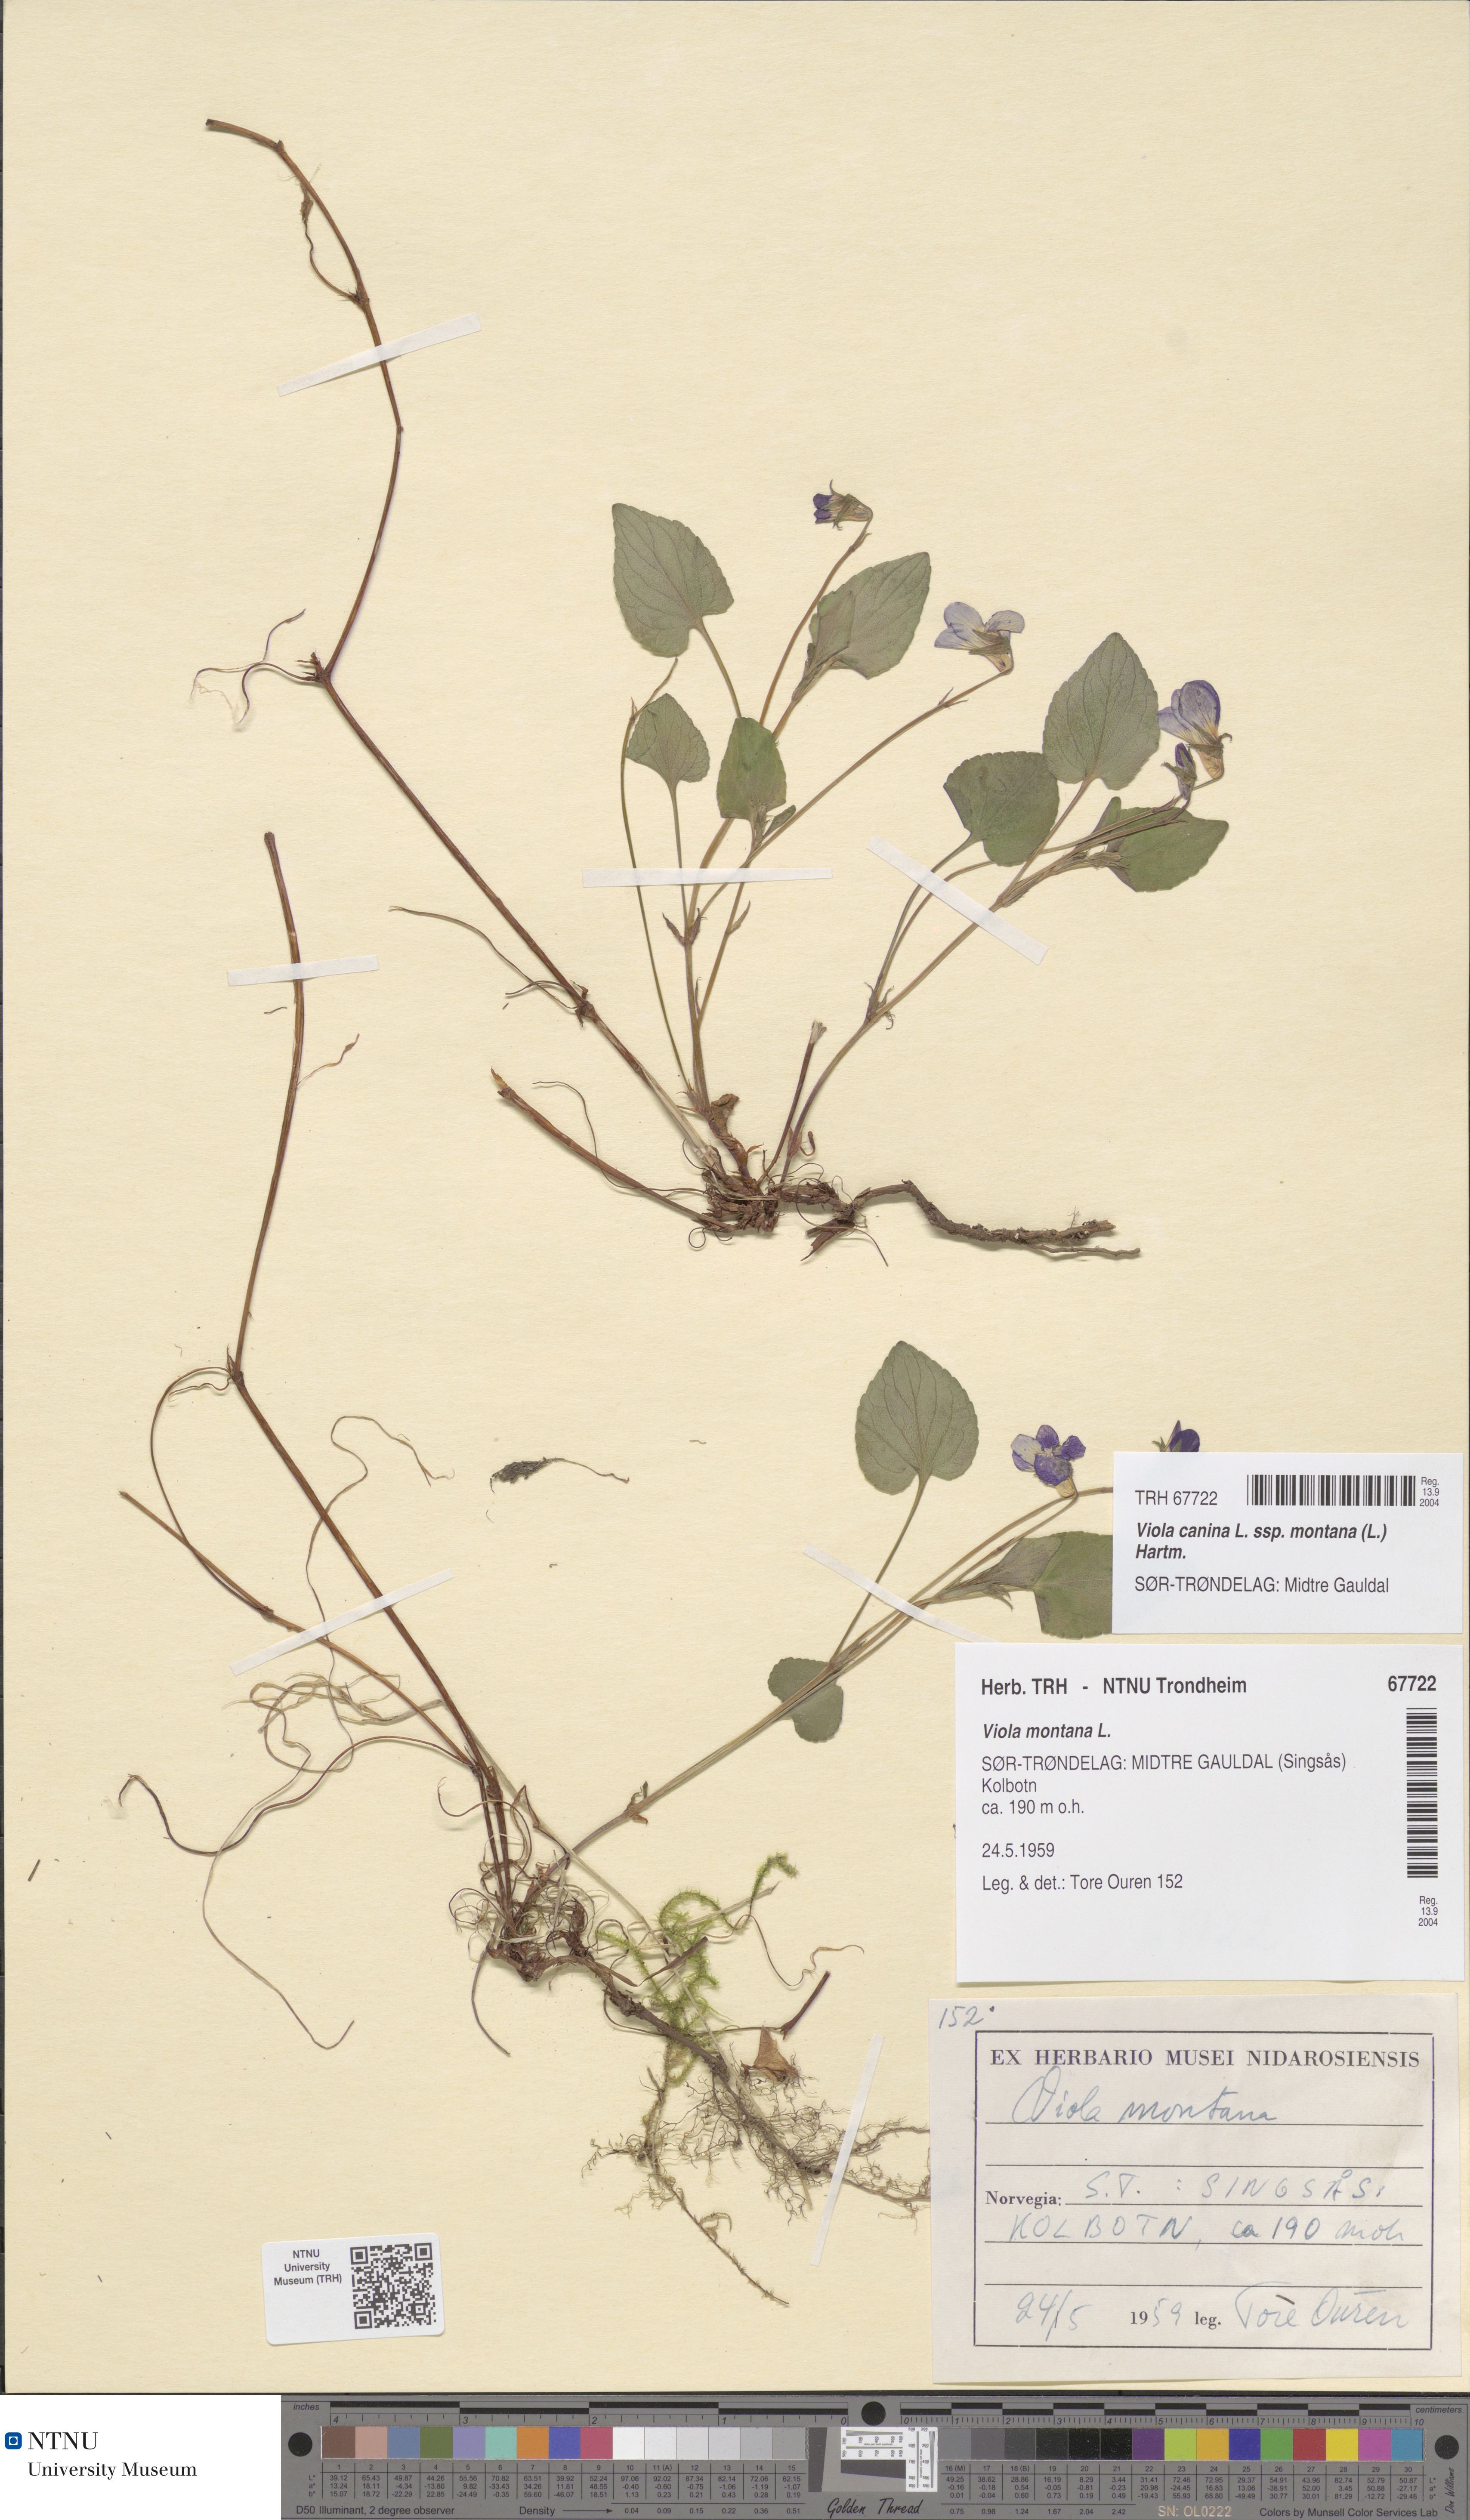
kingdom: Plantae
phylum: Tracheophyta
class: Magnoliopsida
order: Malpighiales
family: Violaceae
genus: Viola
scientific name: Viola ruppii
